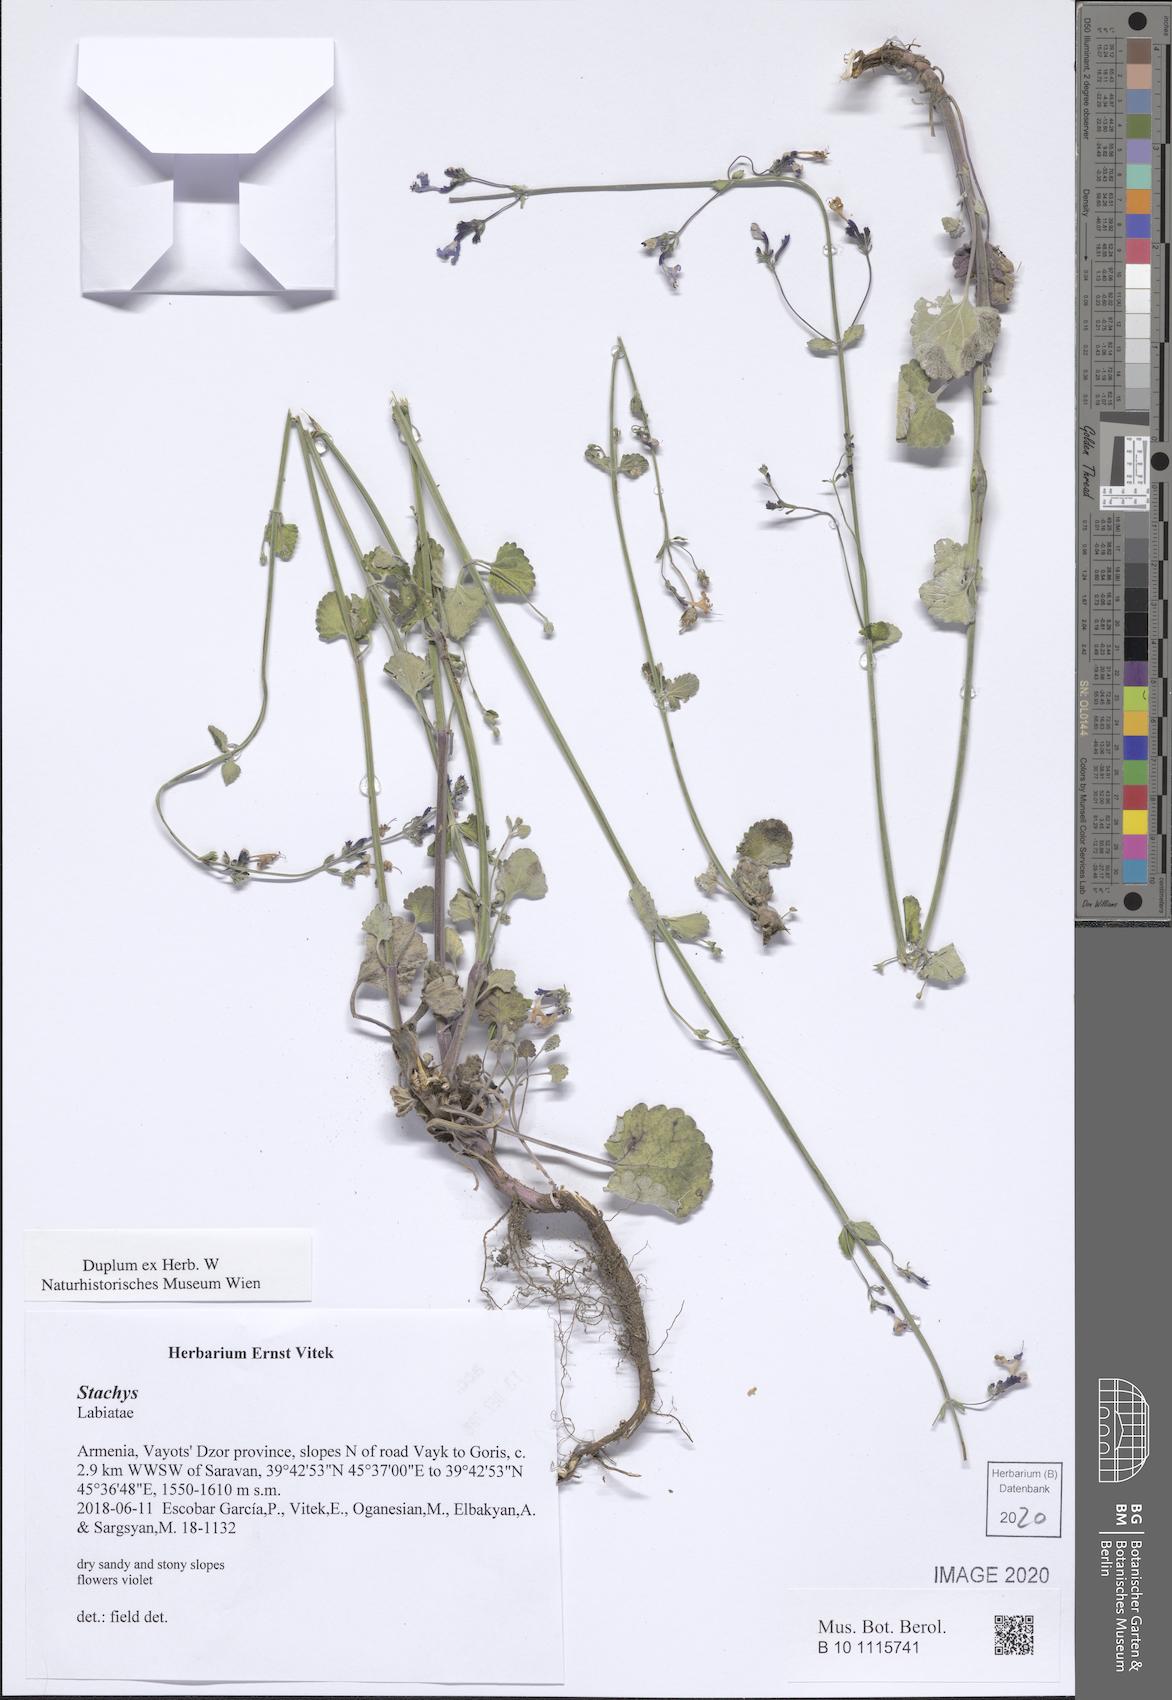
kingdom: Plantae
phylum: Tracheophyta
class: Magnoliopsida
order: Lamiales
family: Lamiaceae
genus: Nepeta
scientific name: Nepeta
